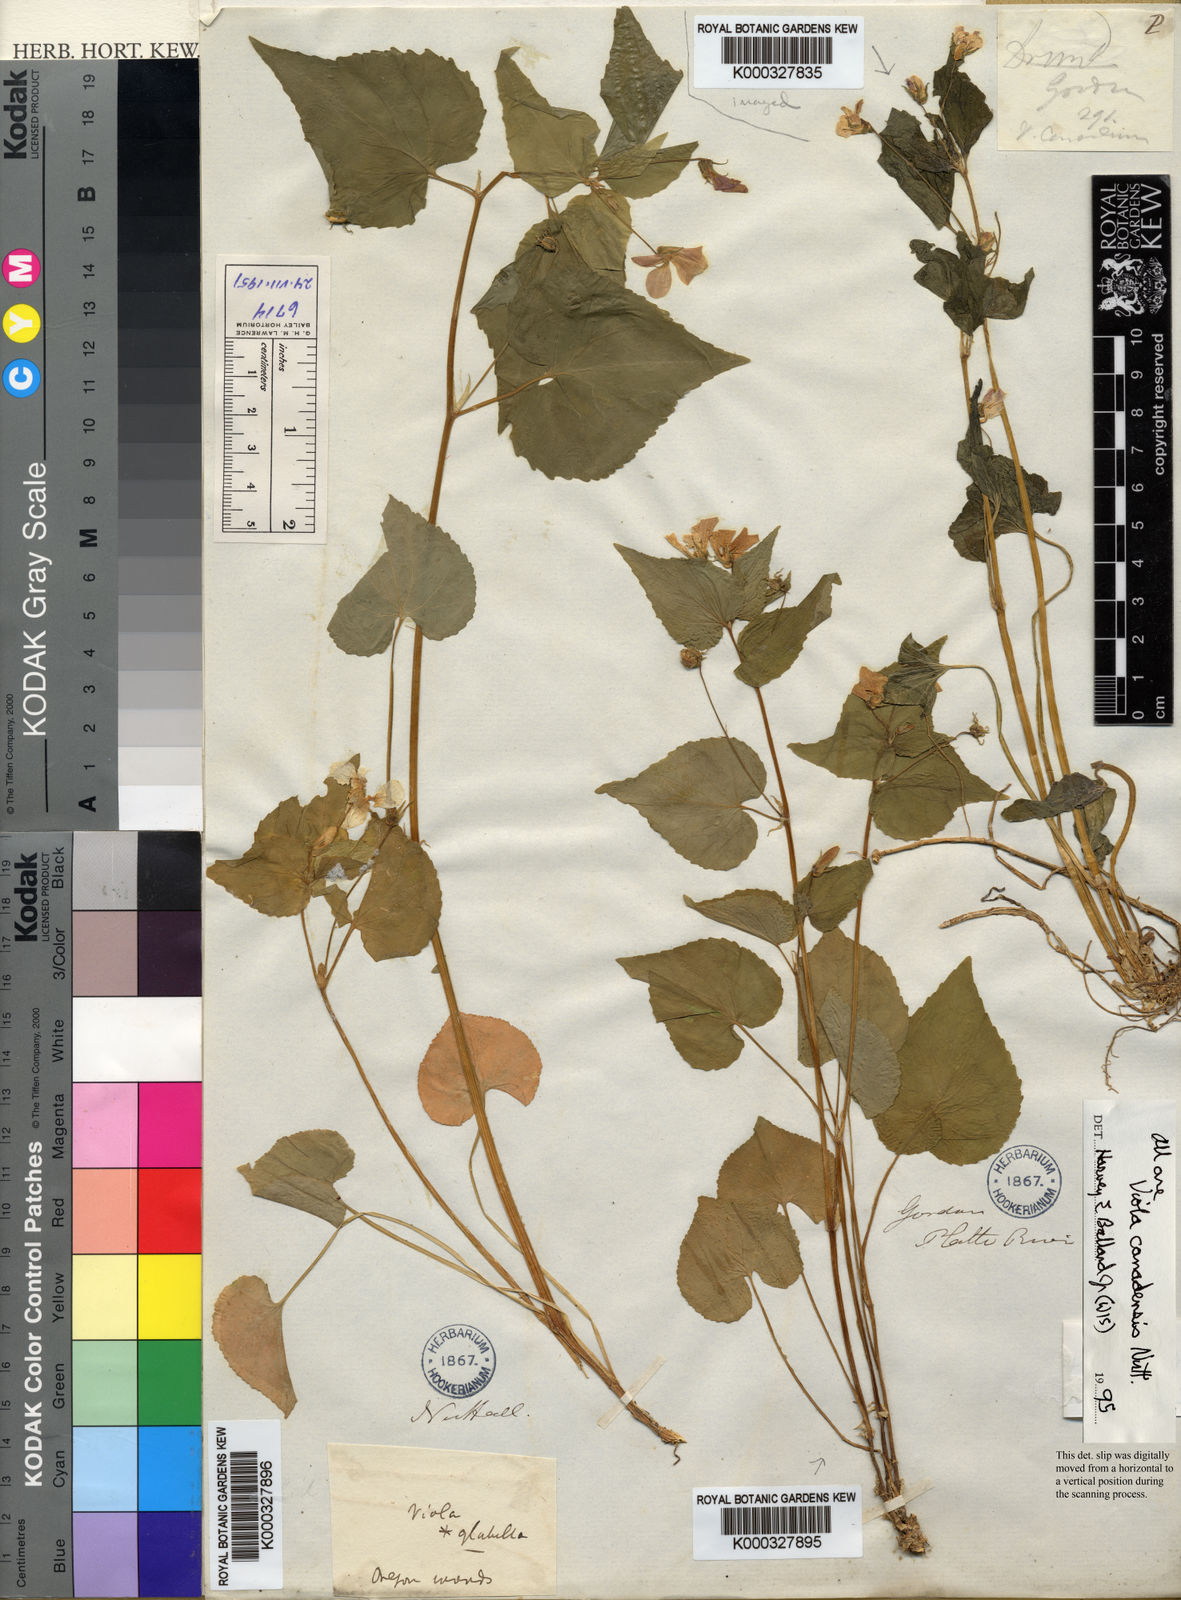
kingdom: Plantae
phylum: Tracheophyta
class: Magnoliopsida
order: Malpighiales
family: Violaceae
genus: Viola
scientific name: Viola glabella
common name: Stream violet
